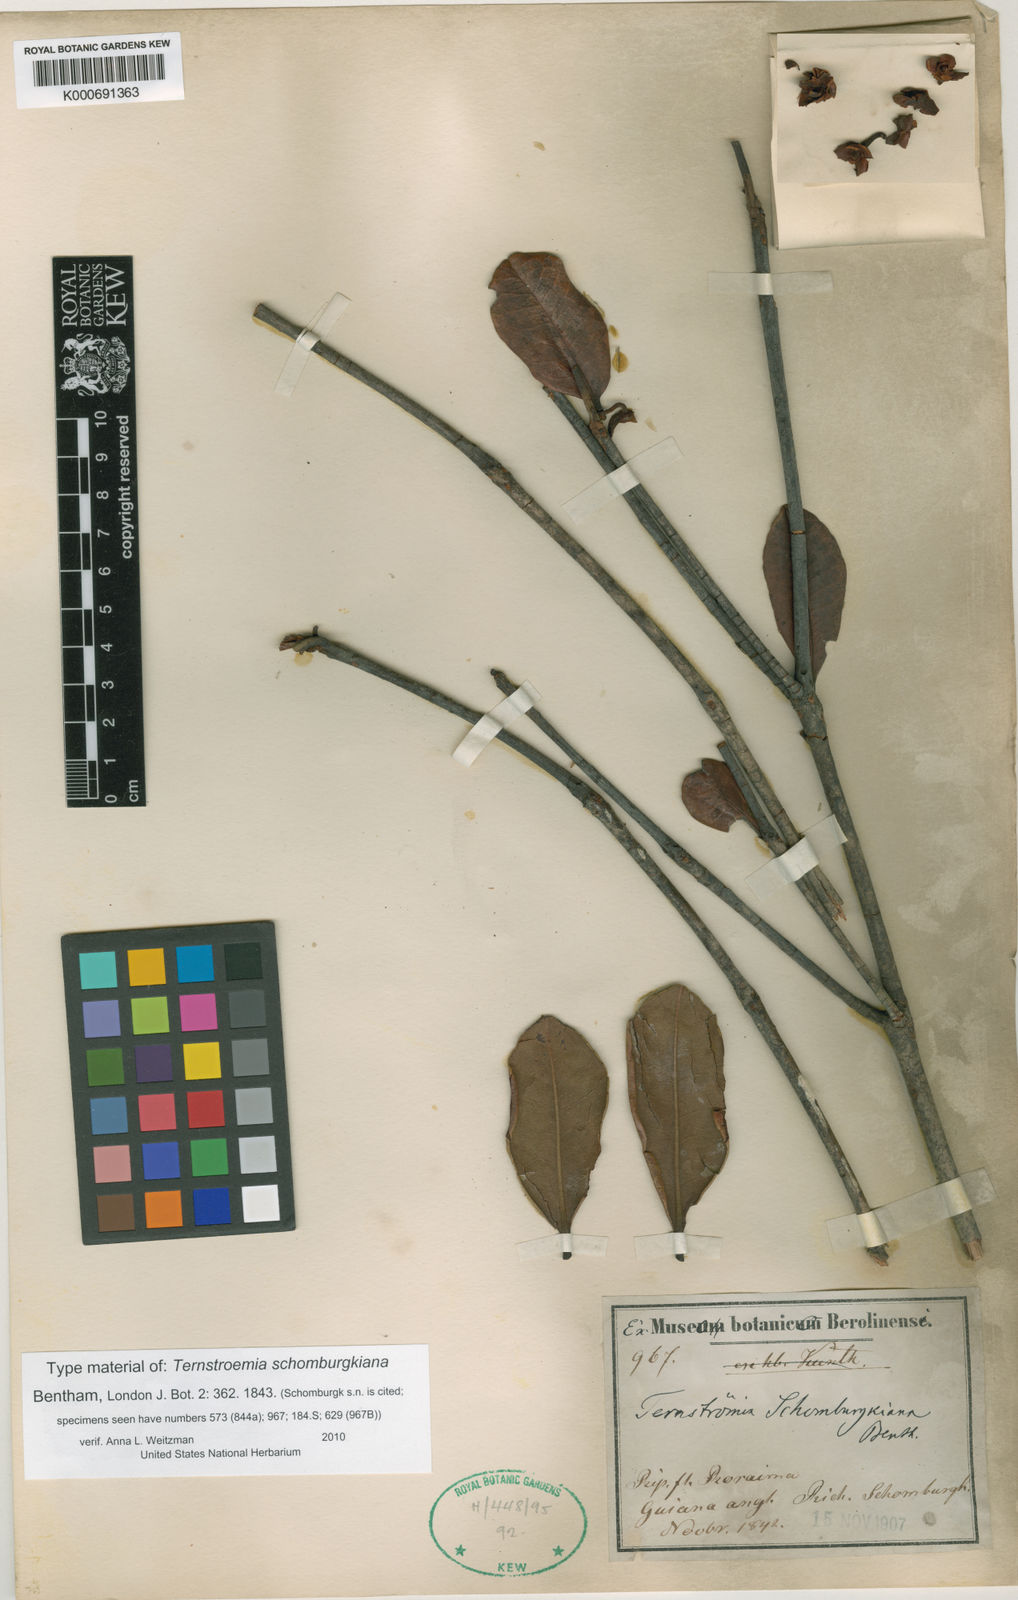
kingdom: Plantae
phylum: Tracheophyta
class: Magnoliopsida
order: Ericales
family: Pentaphylacaceae
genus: Ternstroemia
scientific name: Ternstroemia schomburgkiana
